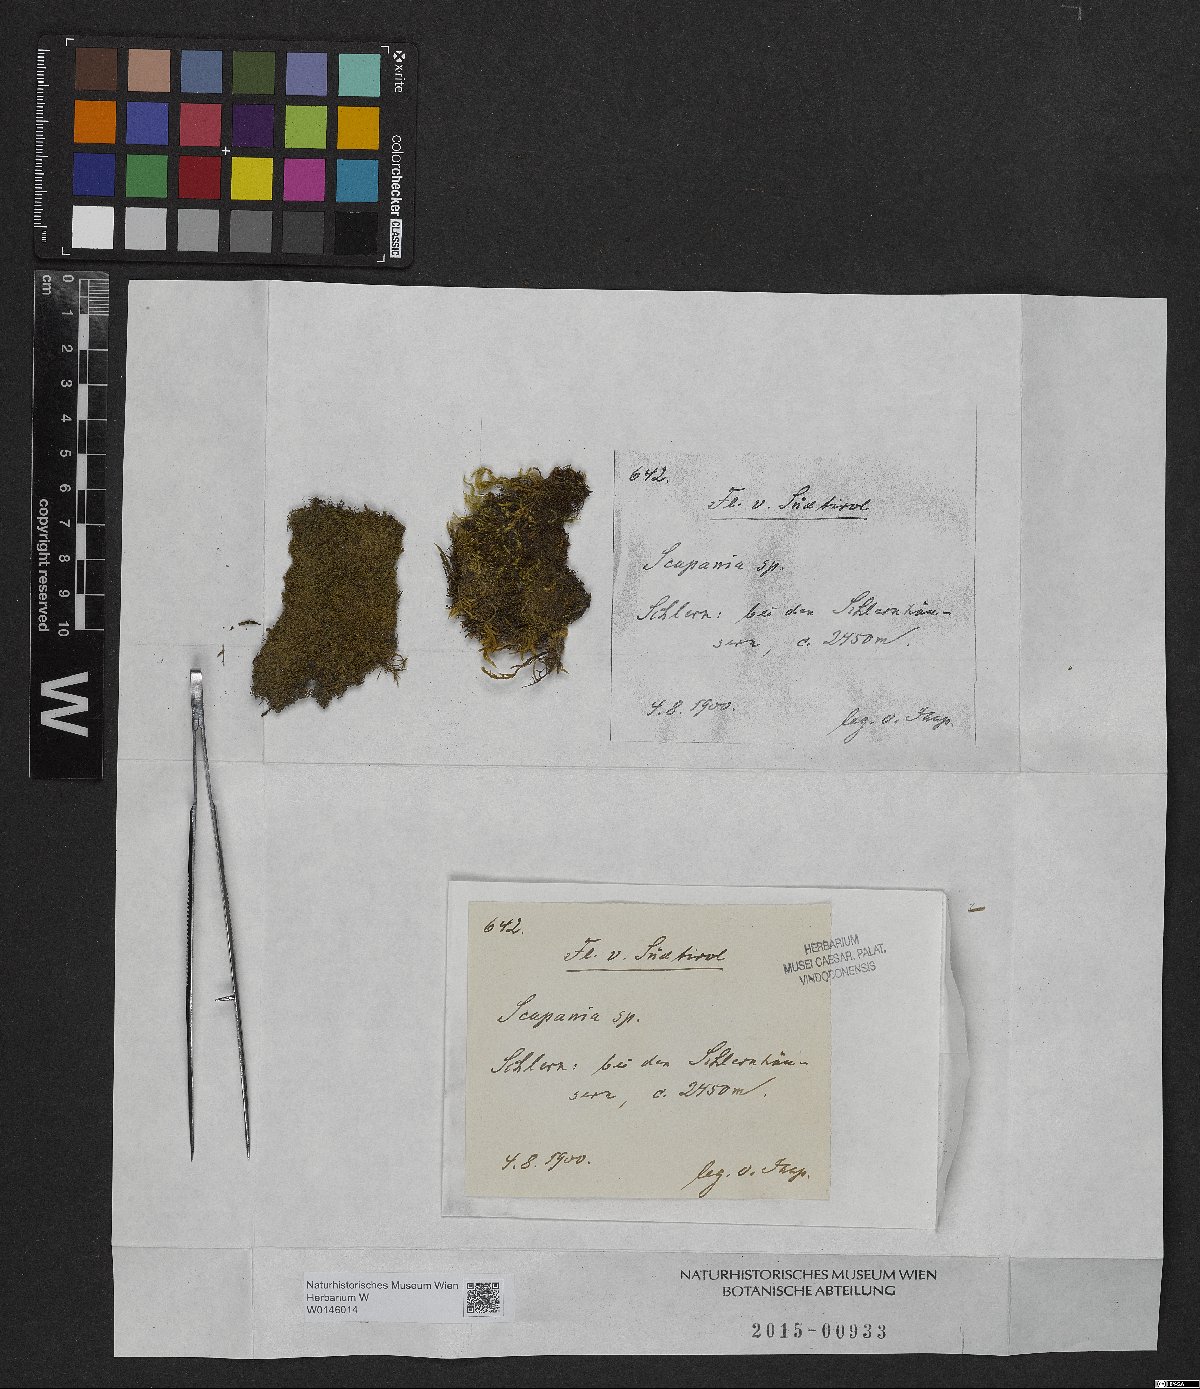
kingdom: Plantae
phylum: Marchantiophyta
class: Jungermanniopsida
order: Jungermanniales
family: Scapaniaceae
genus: Scapania
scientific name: Scapania
